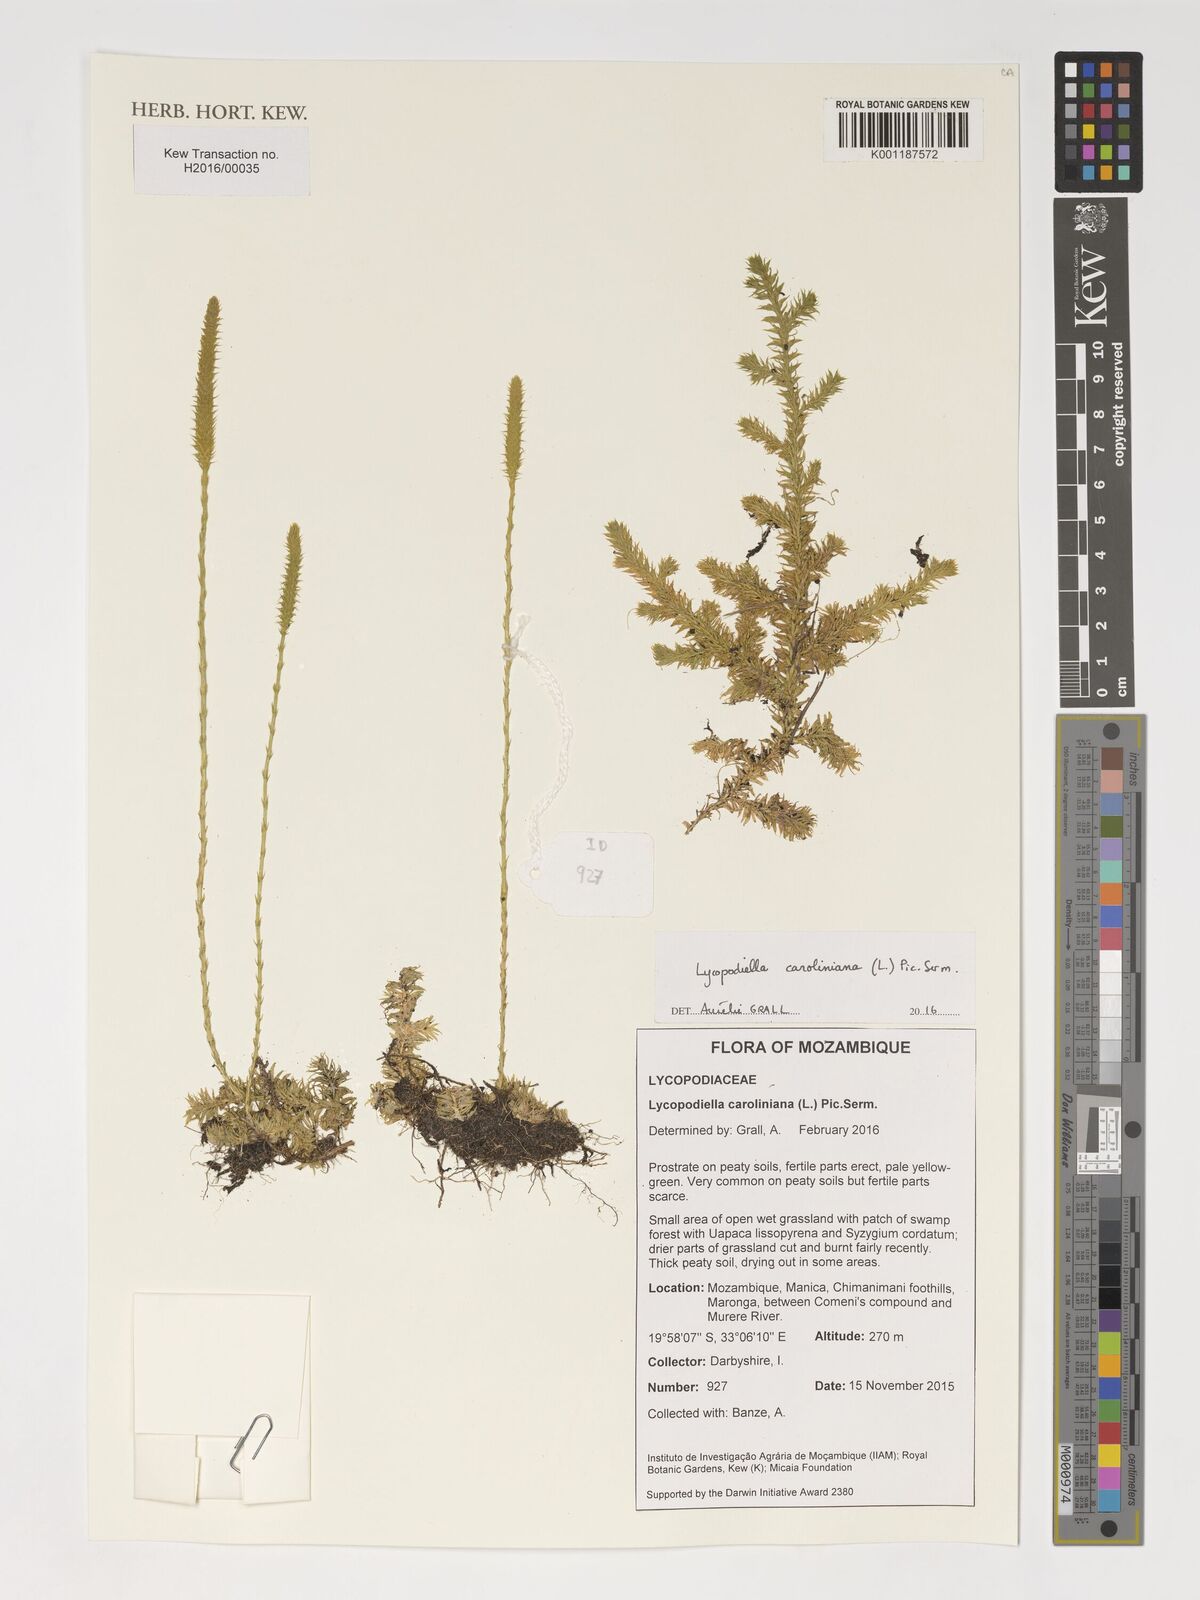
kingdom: Plantae
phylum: Tracheophyta
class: Lycopodiopsida
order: Lycopodiales
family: Lycopodiaceae
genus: Pseudolycopodiella
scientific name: Pseudolycopodiella caroliniana
